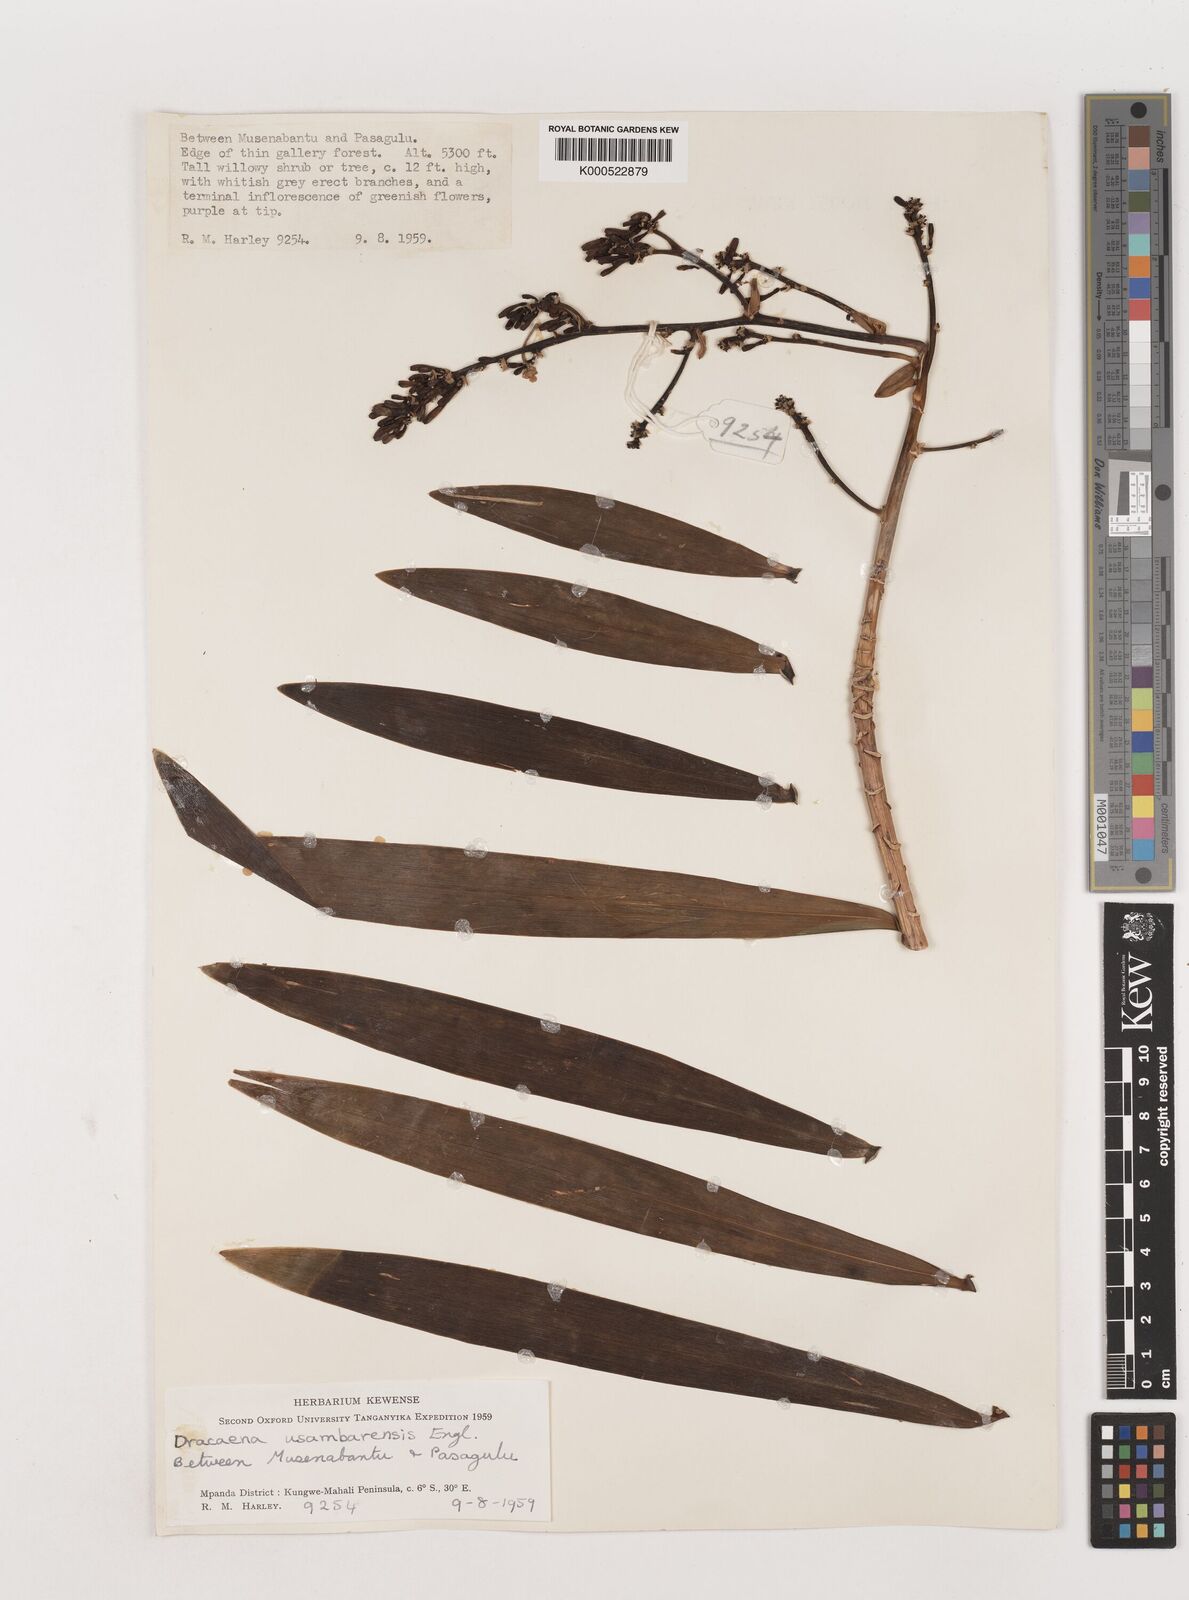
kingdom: Plantae
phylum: Tracheophyta
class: Liliopsida
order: Asparagales
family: Asparagaceae
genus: Dracaena
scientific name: Dracaena usambarensis
